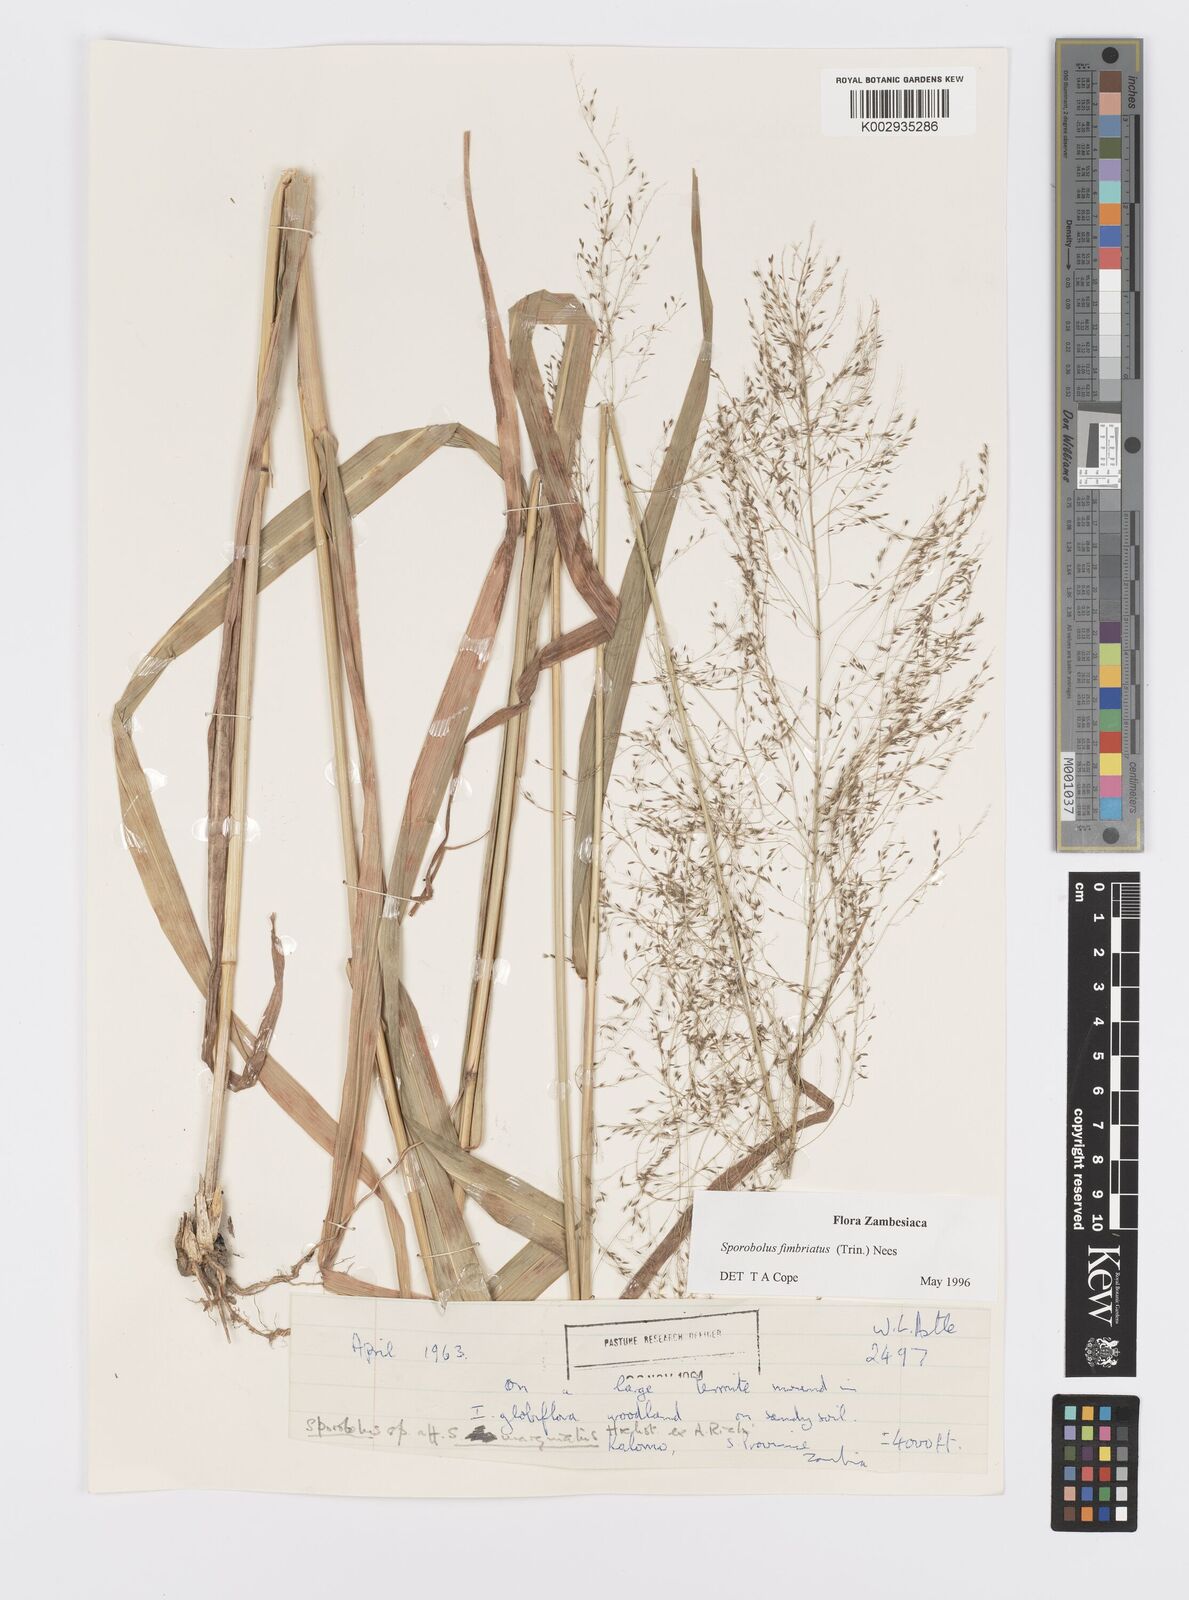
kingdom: Plantae
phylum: Tracheophyta
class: Liliopsida
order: Poales
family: Poaceae
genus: Sporobolus
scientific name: Sporobolus fimbriatus
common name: Fringed dropseed
